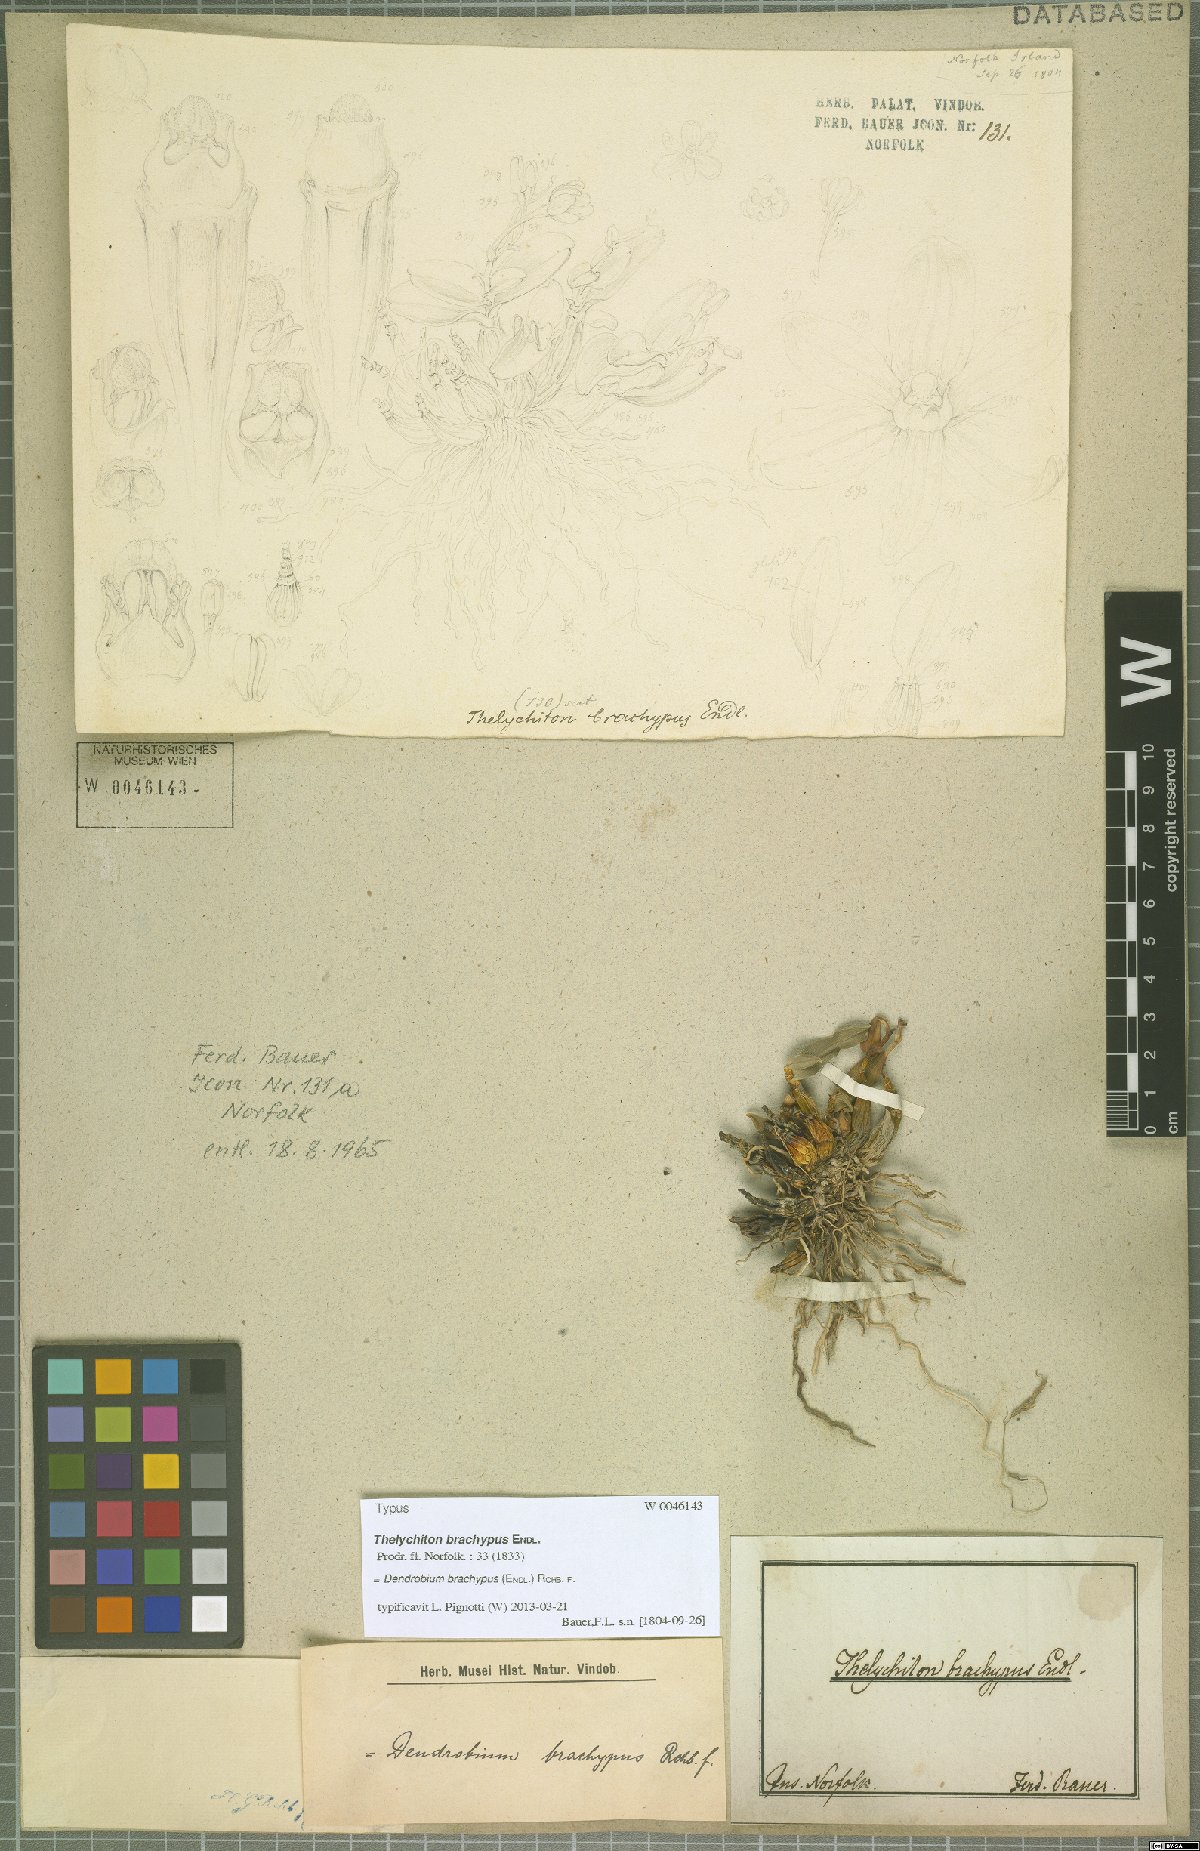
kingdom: Plantae
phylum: Tracheophyta
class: Liliopsida
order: Asparagales
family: Orchidaceae
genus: Dendrobium
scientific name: Dendrobium brachypus
